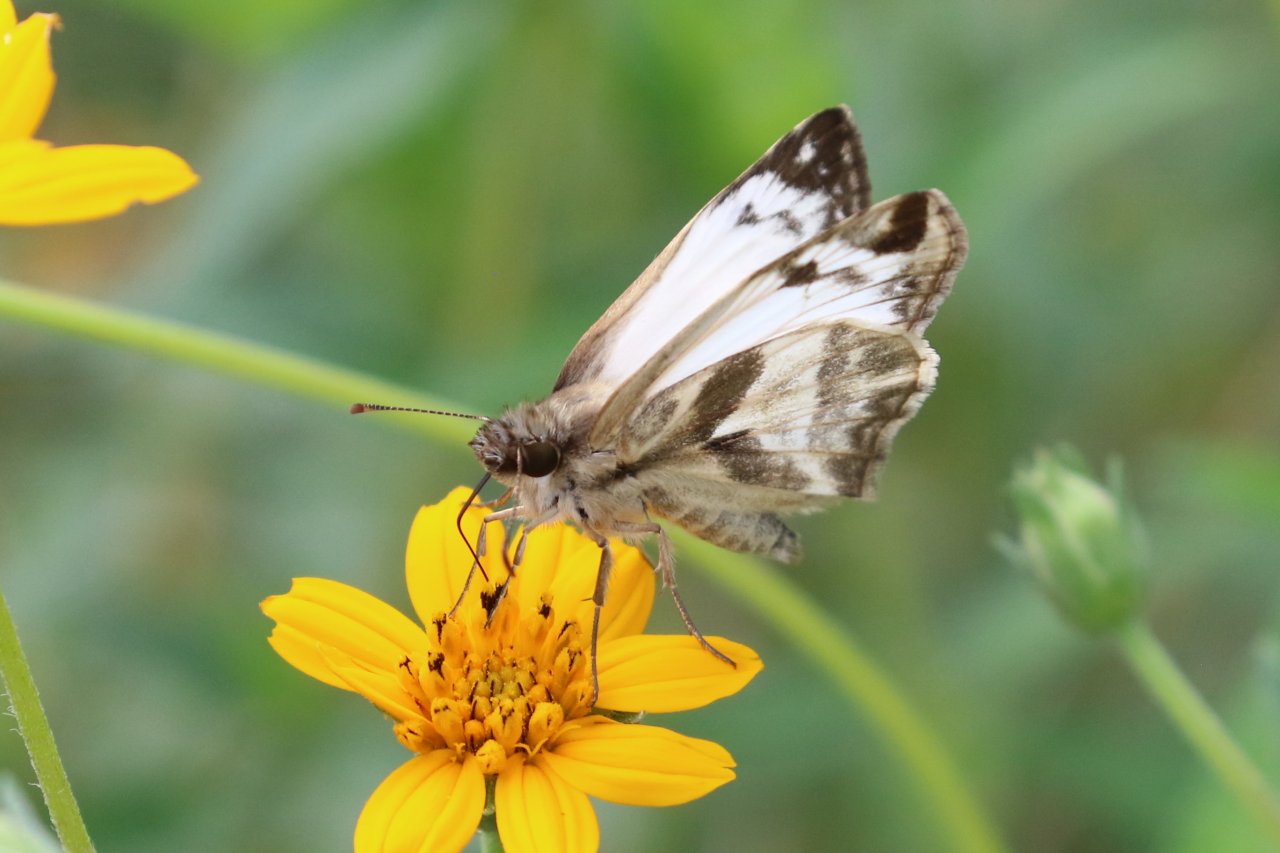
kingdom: Animalia
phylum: Arthropoda
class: Insecta
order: Lepidoptera
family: Hesperiidae
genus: Heliopetes
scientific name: Heliopetes laviana
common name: Laviana White-Skipper
